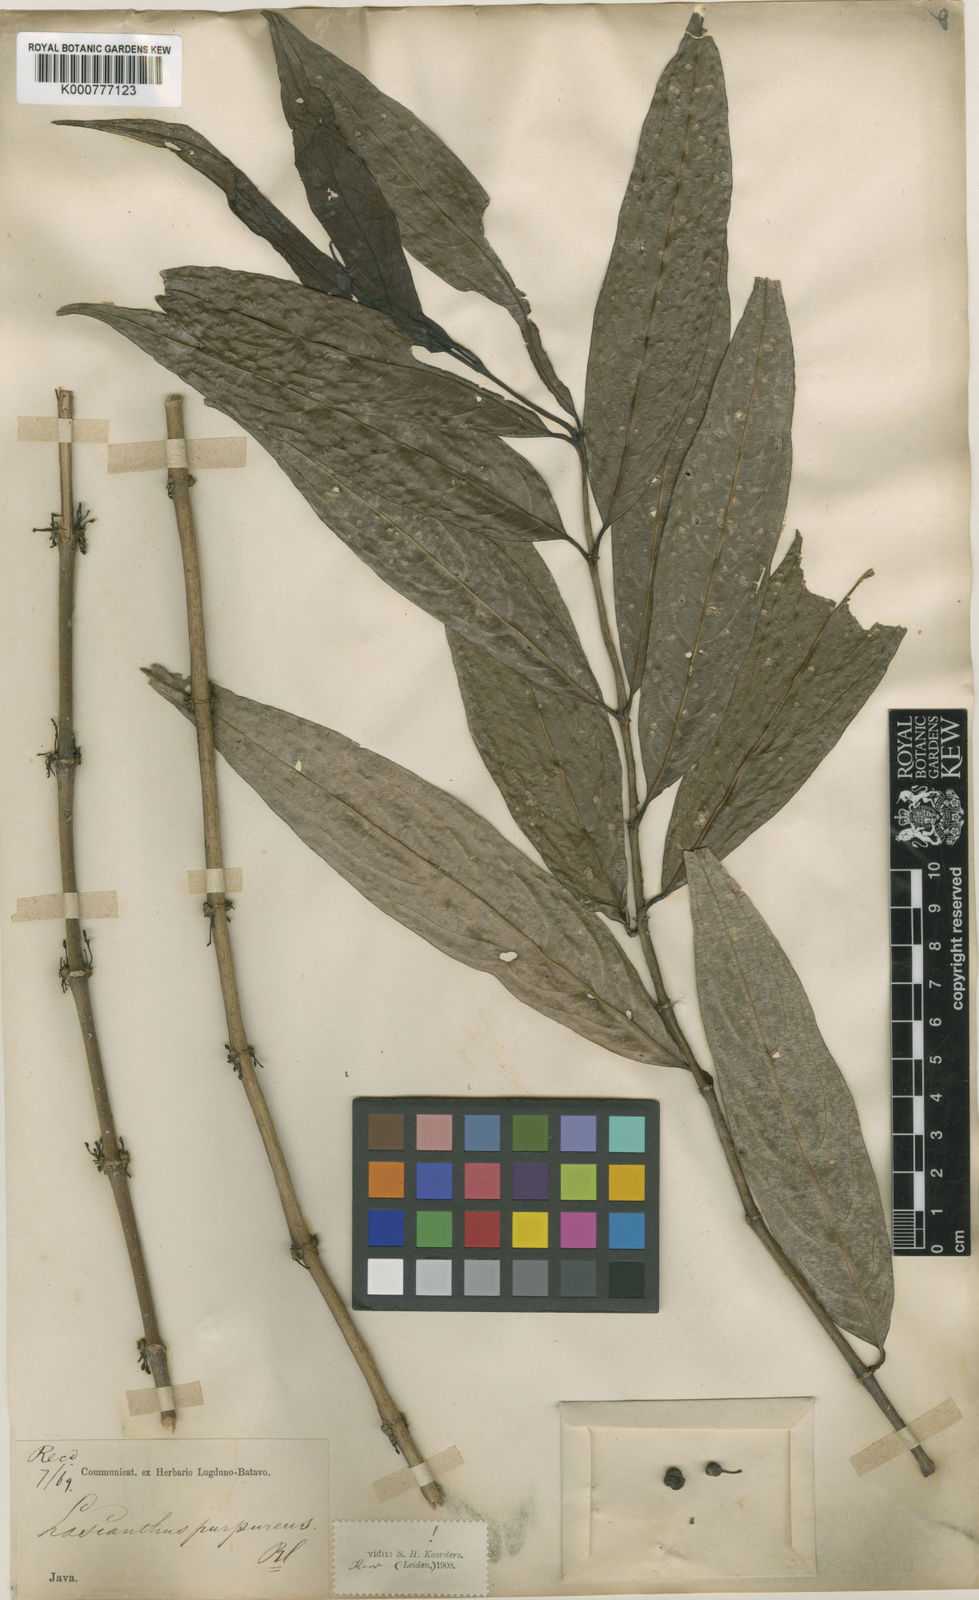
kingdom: Plantae
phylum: Tracheophyta
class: Magnoliopsida
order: Gentianales
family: Rubiaceae
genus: Lasianthus
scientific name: Lasianthus purpureus
